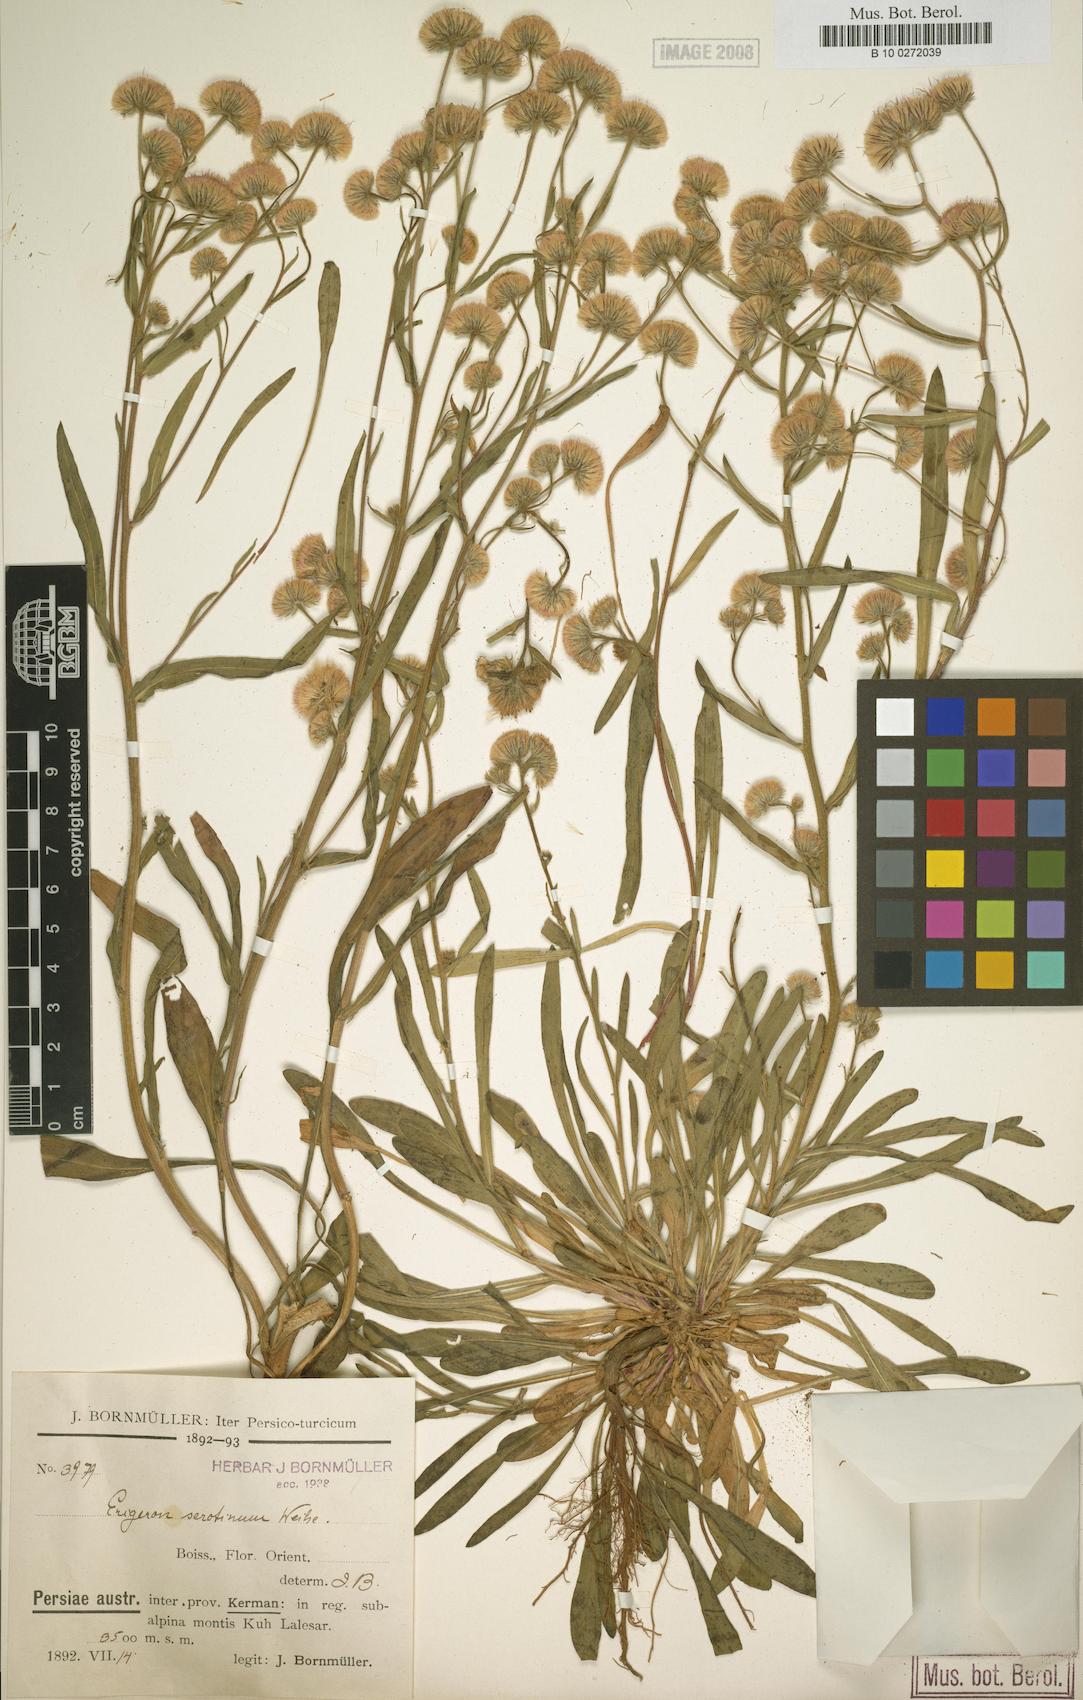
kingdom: Plantae
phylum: Tracheophyta
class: Magnoliopsida
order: Asterales
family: Asteraceae
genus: Erigeron
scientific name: Erigeron lalehzaricus
